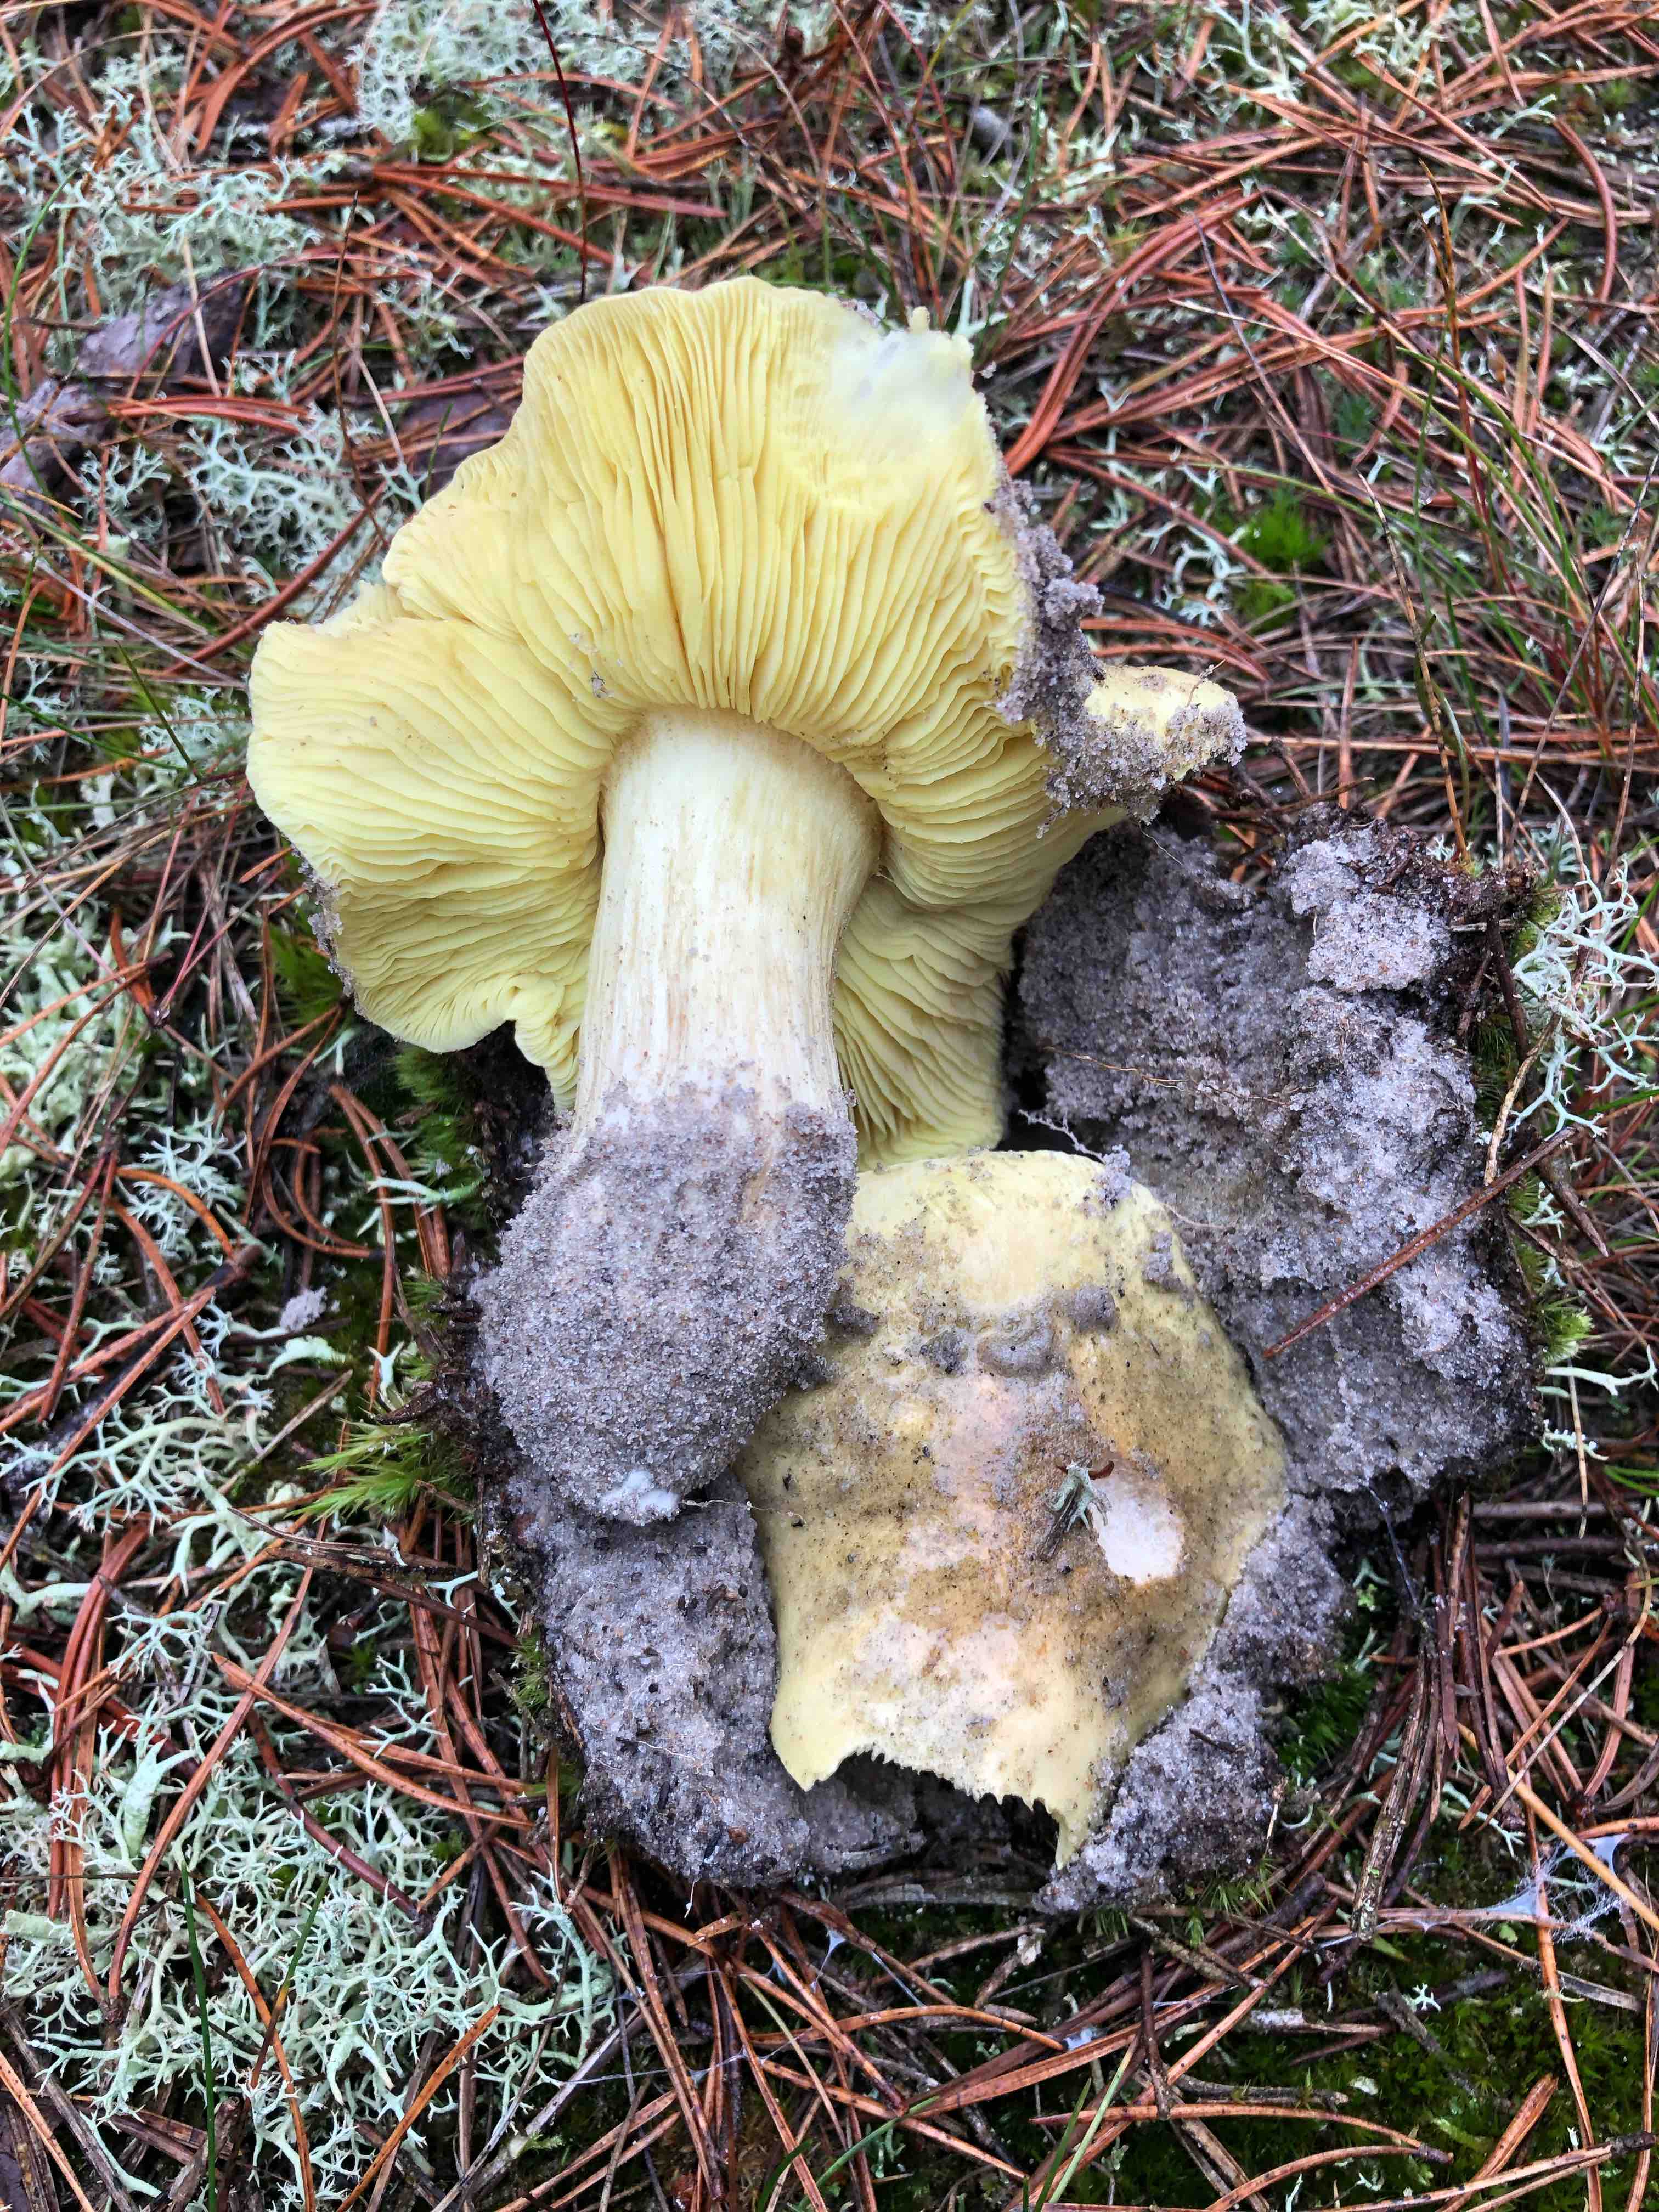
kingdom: Fungi
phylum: Basidiomycota
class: Agaricomycetes
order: Agaricales
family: Tricholomataceae
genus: Tricholoma
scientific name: Tricholoma equestre
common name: ægte ridderhat
